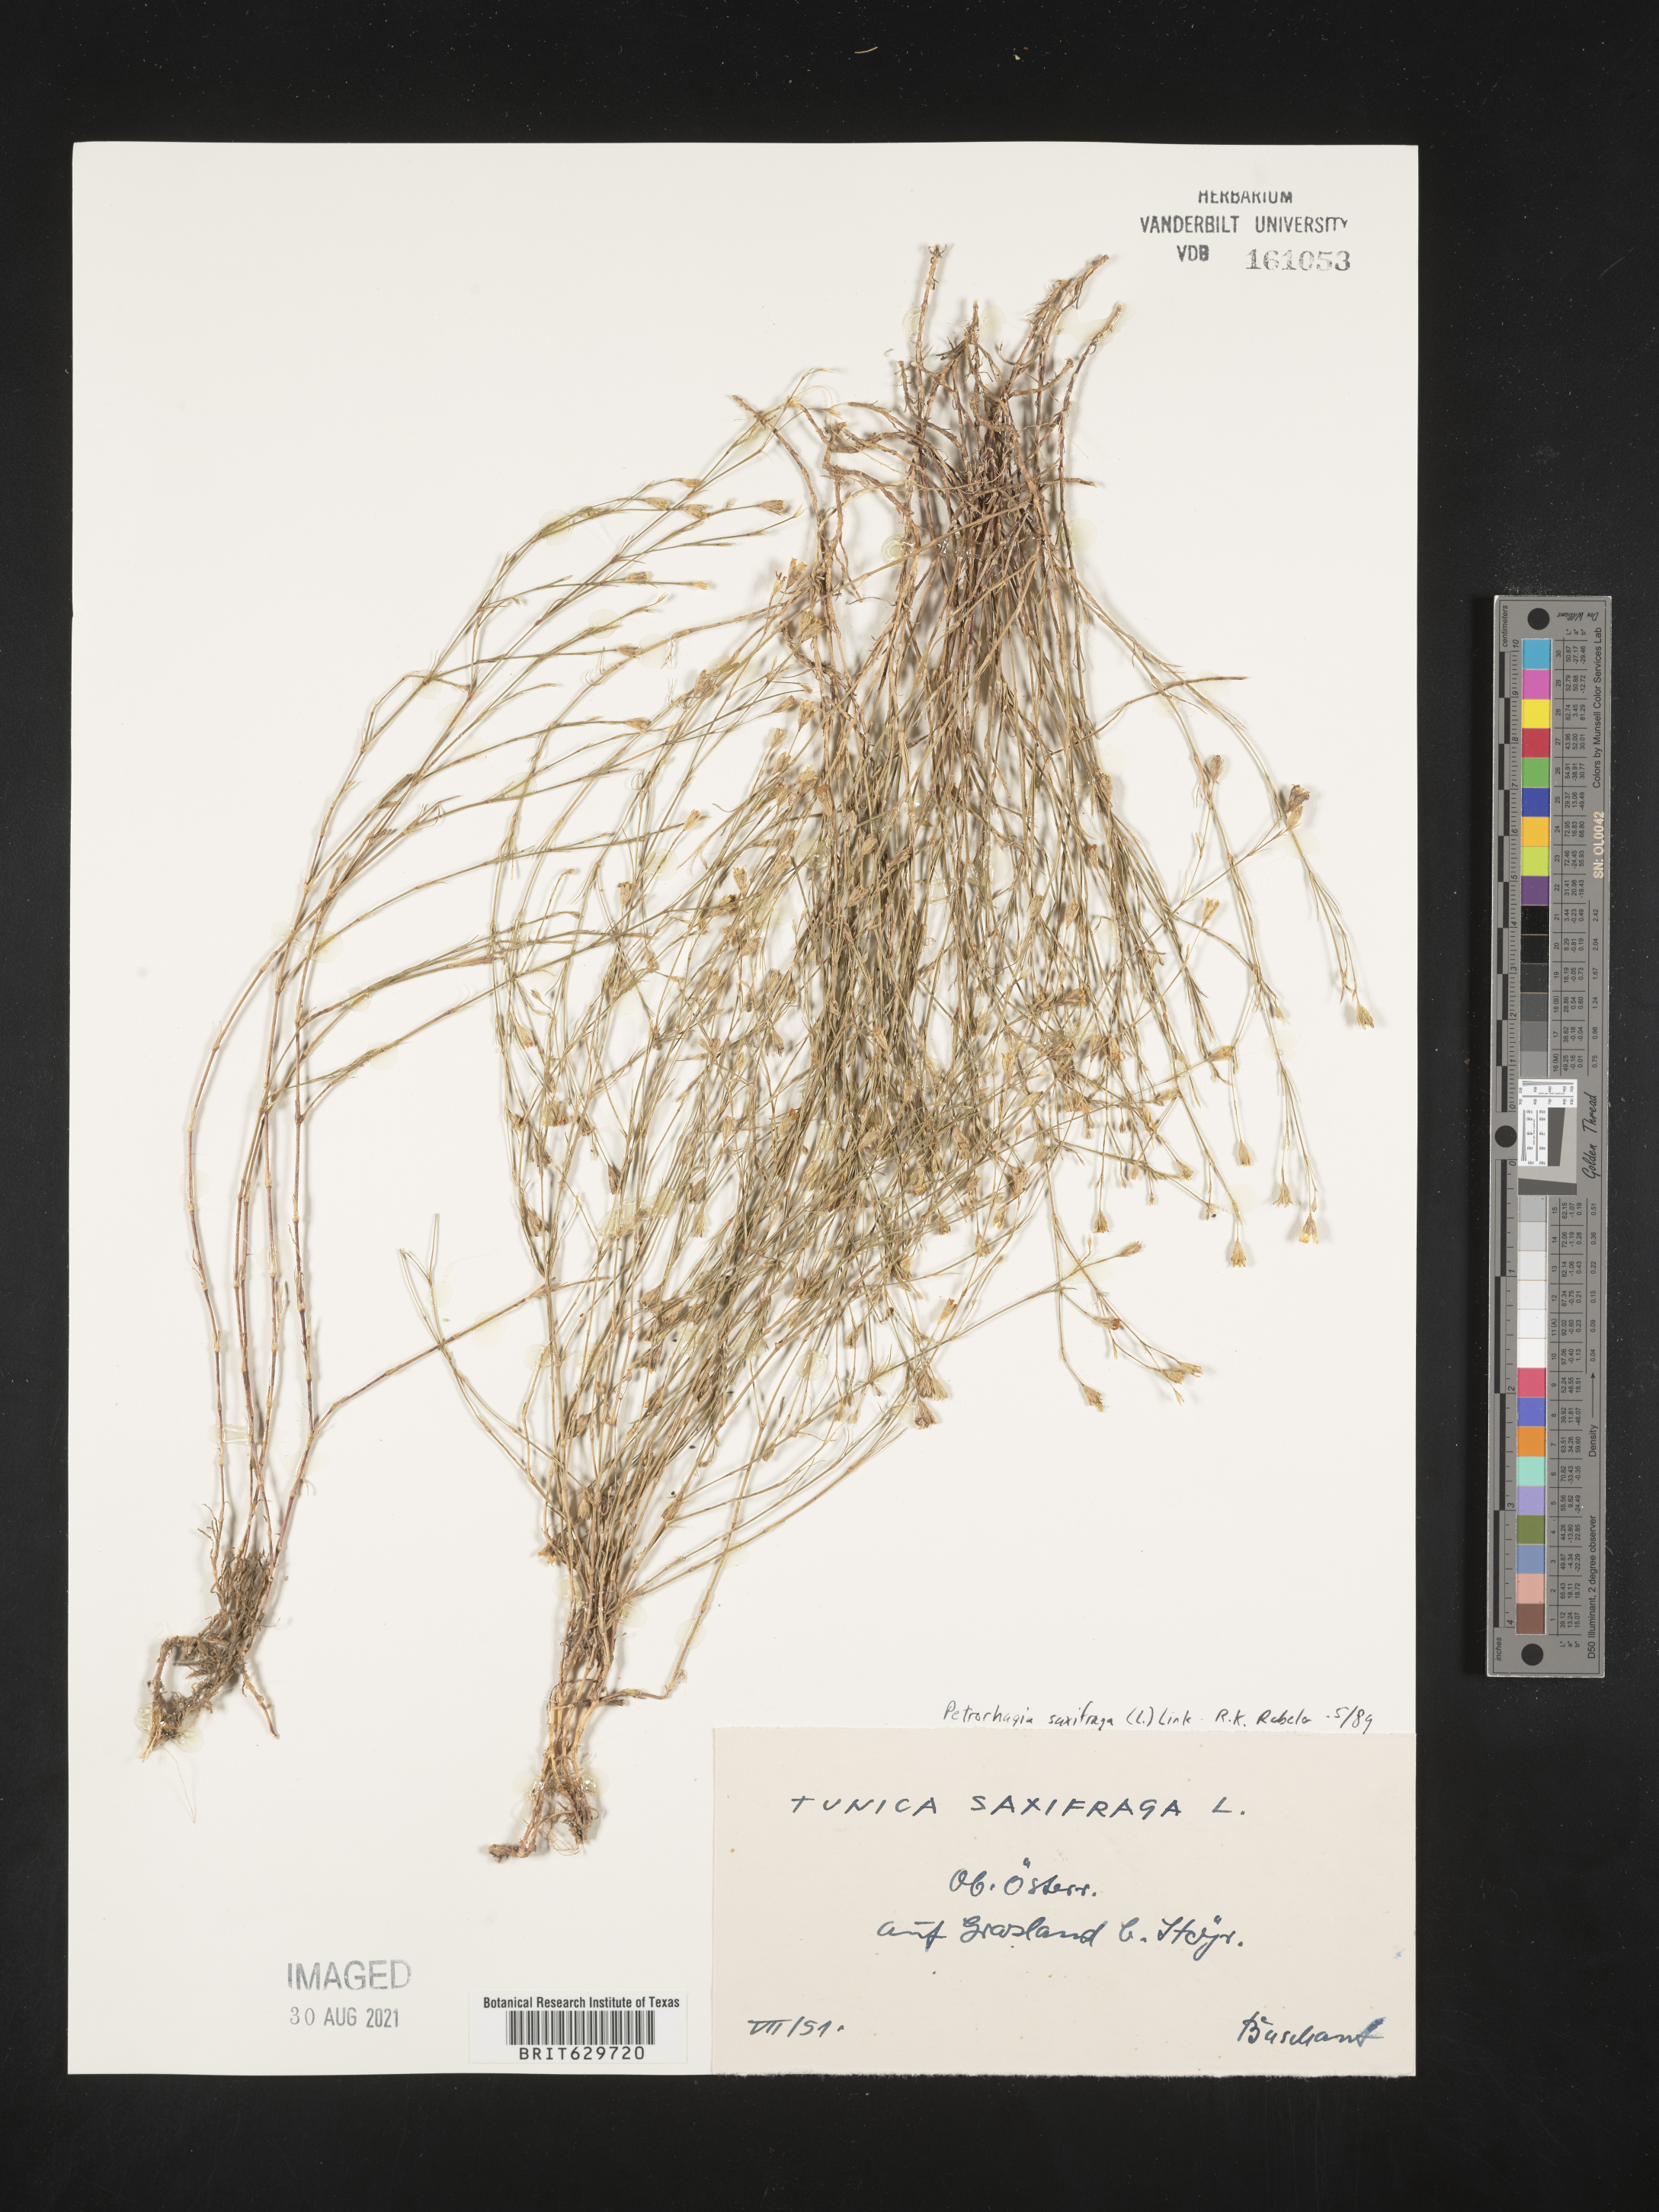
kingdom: Plantae
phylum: Tracheophyta
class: Magnoliopsida
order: Caryophyllales
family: Caryophyllaceae
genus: Petrorhagia
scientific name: Petrorhagia saxifraga
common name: Tunicflower
